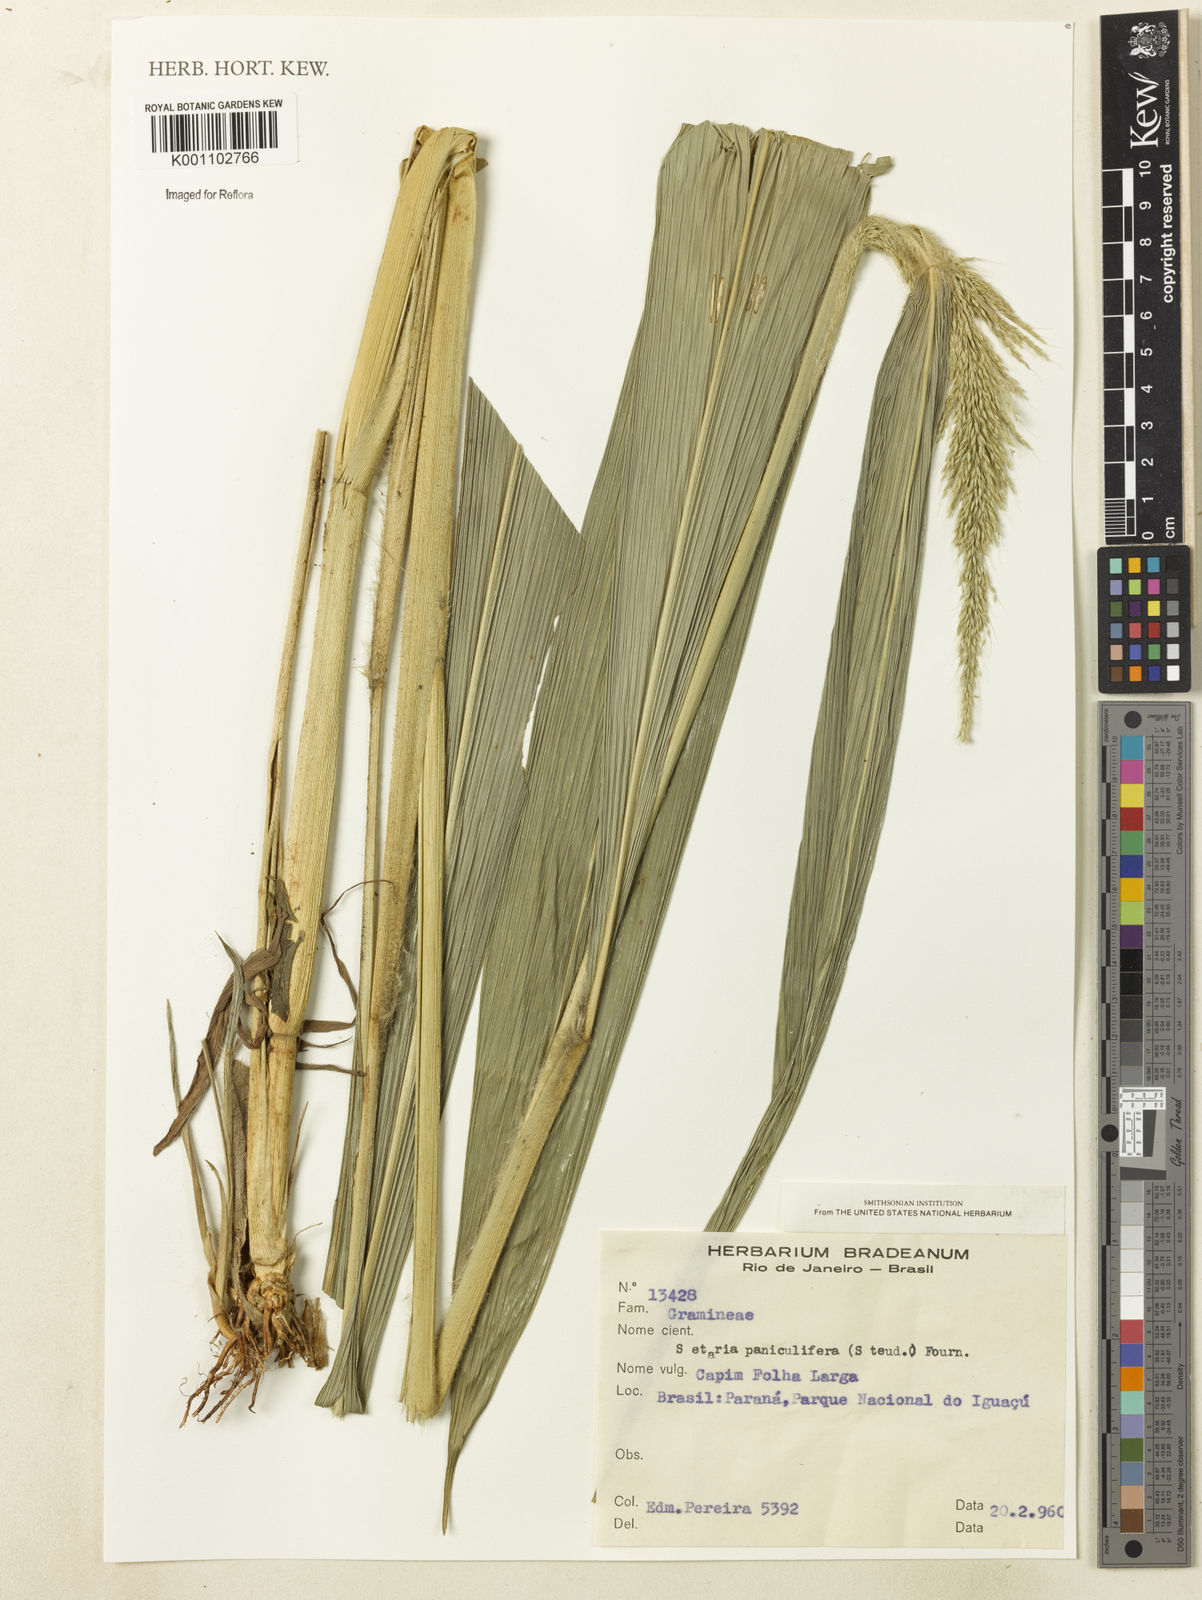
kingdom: Plantae
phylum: Tracheophyta
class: Liliopsida
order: Poales
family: Poaceae
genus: Setaria
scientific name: Setaria
